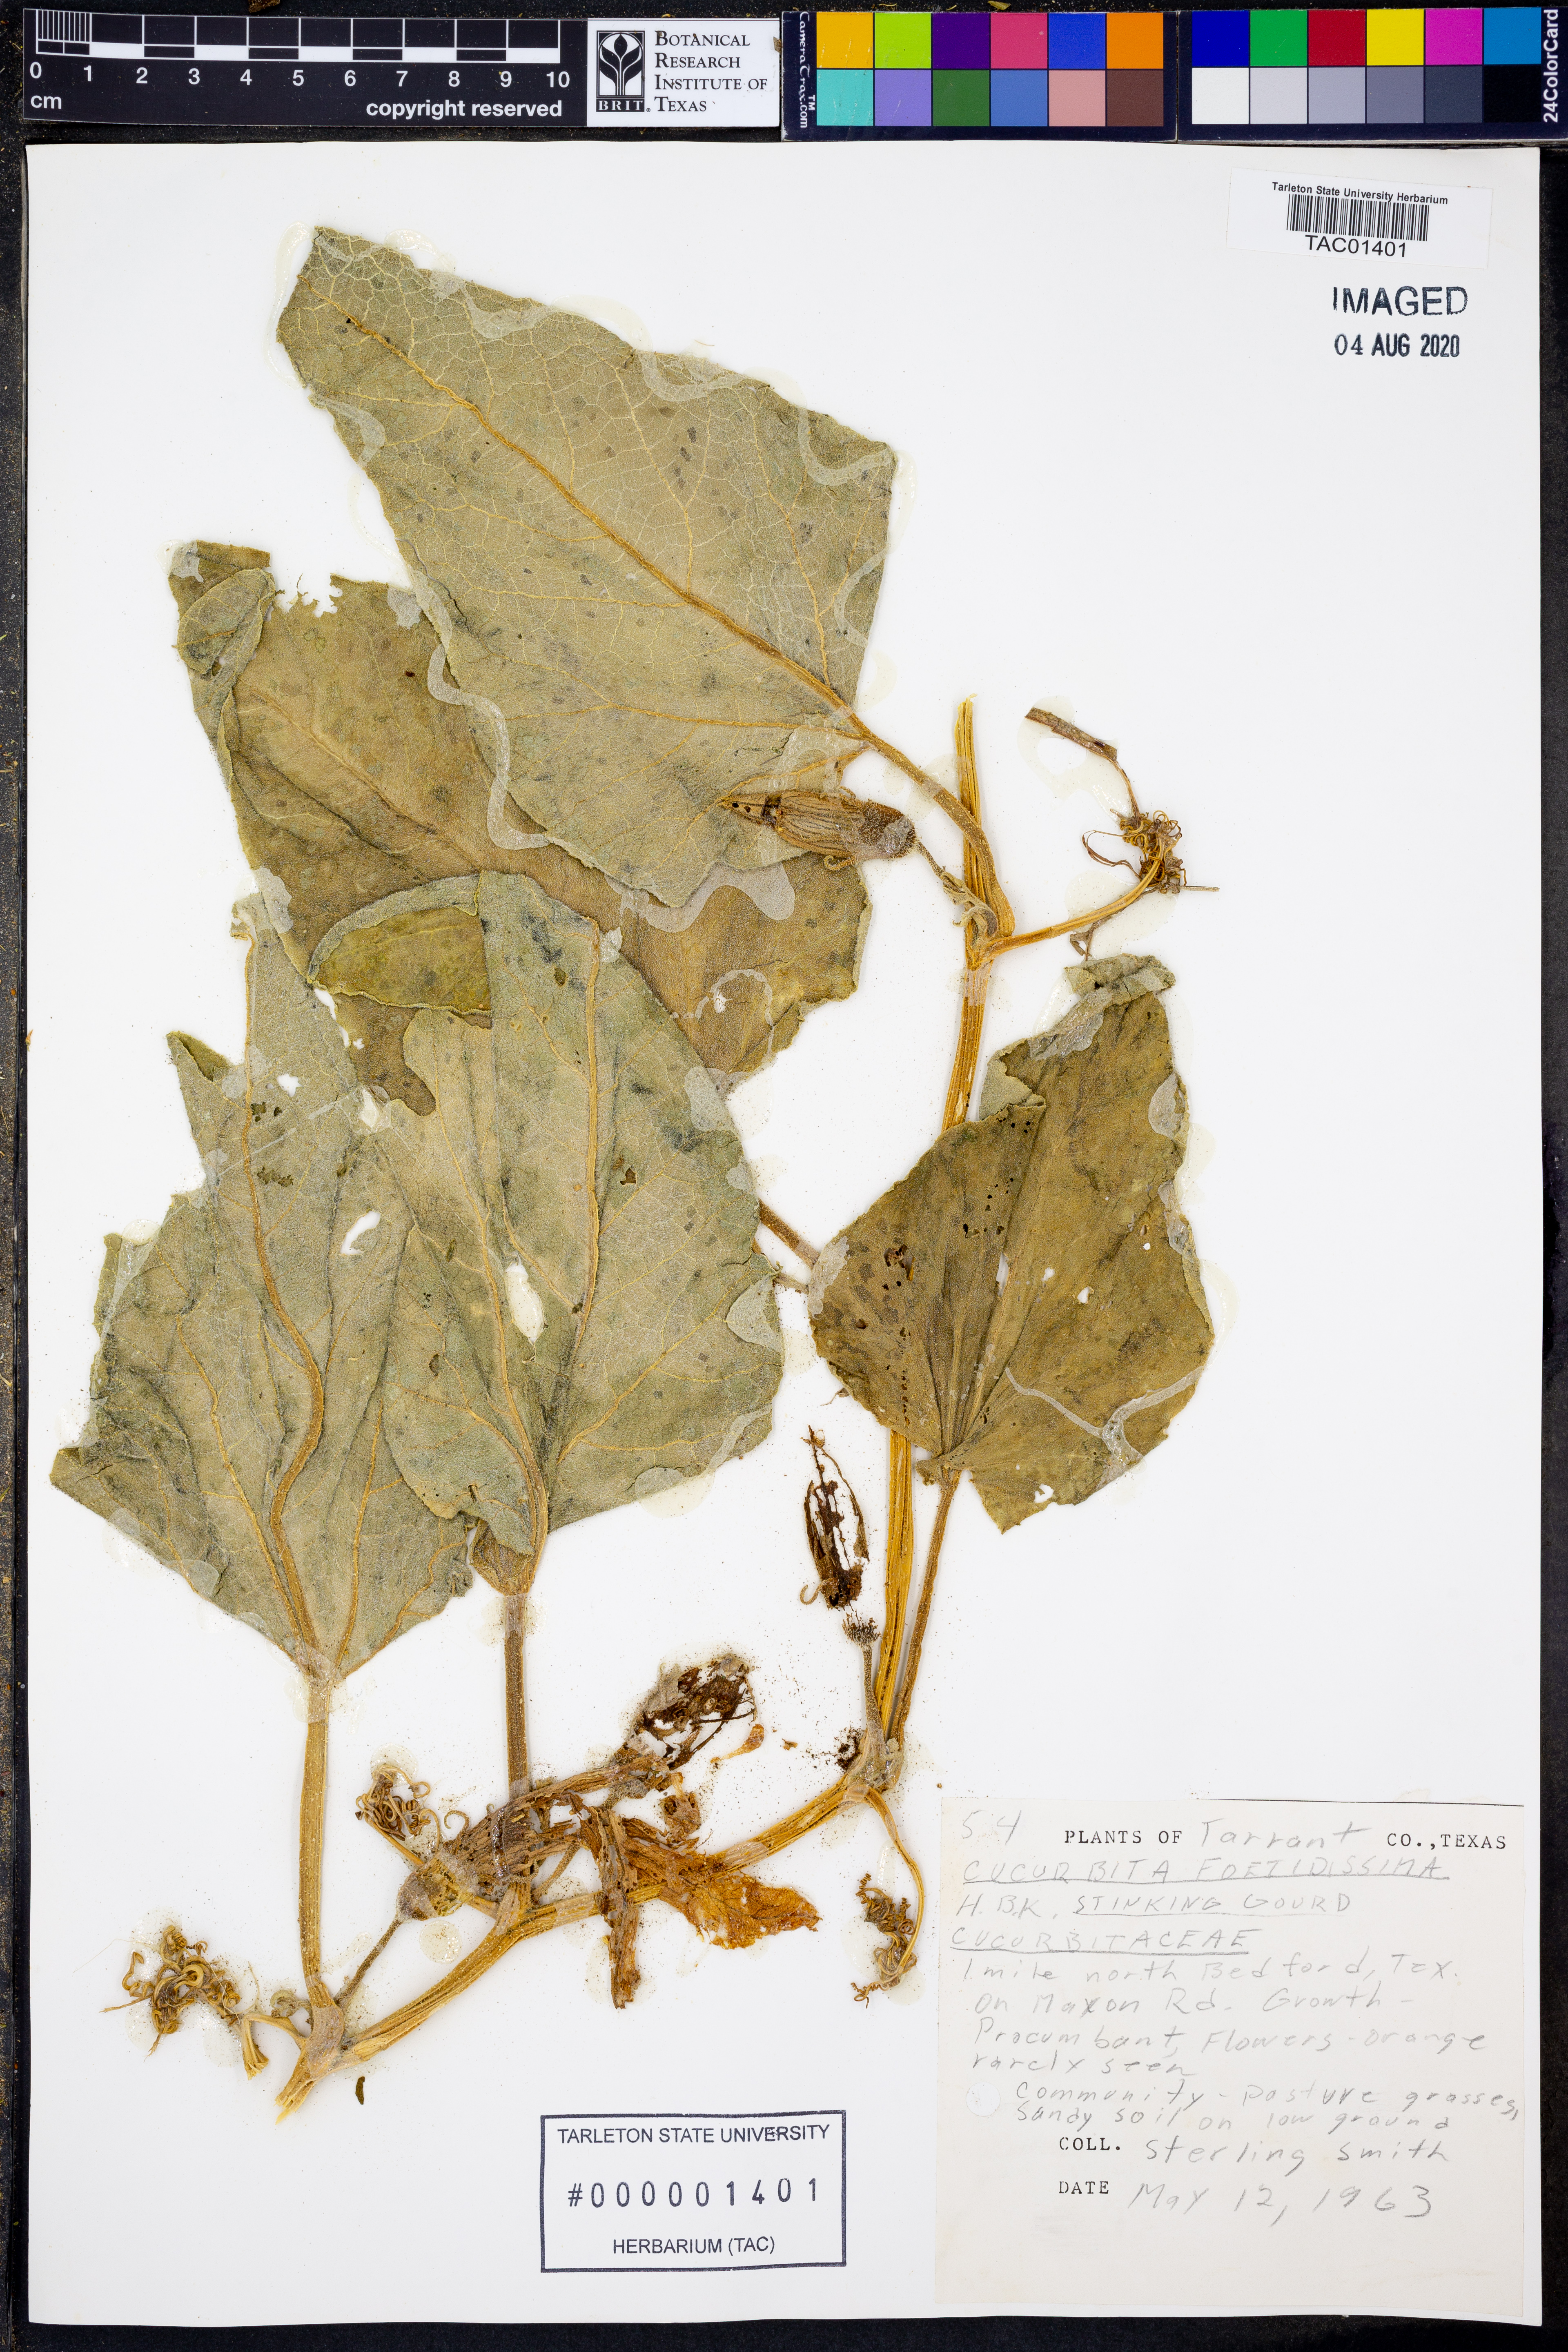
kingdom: Plantae
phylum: Tracheophyta
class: Magnoliopsida
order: Cucurbitales
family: Cucurbitaceae
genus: Cucurbita
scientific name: Cucurbita foetidissima
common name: Buffalo gourd
